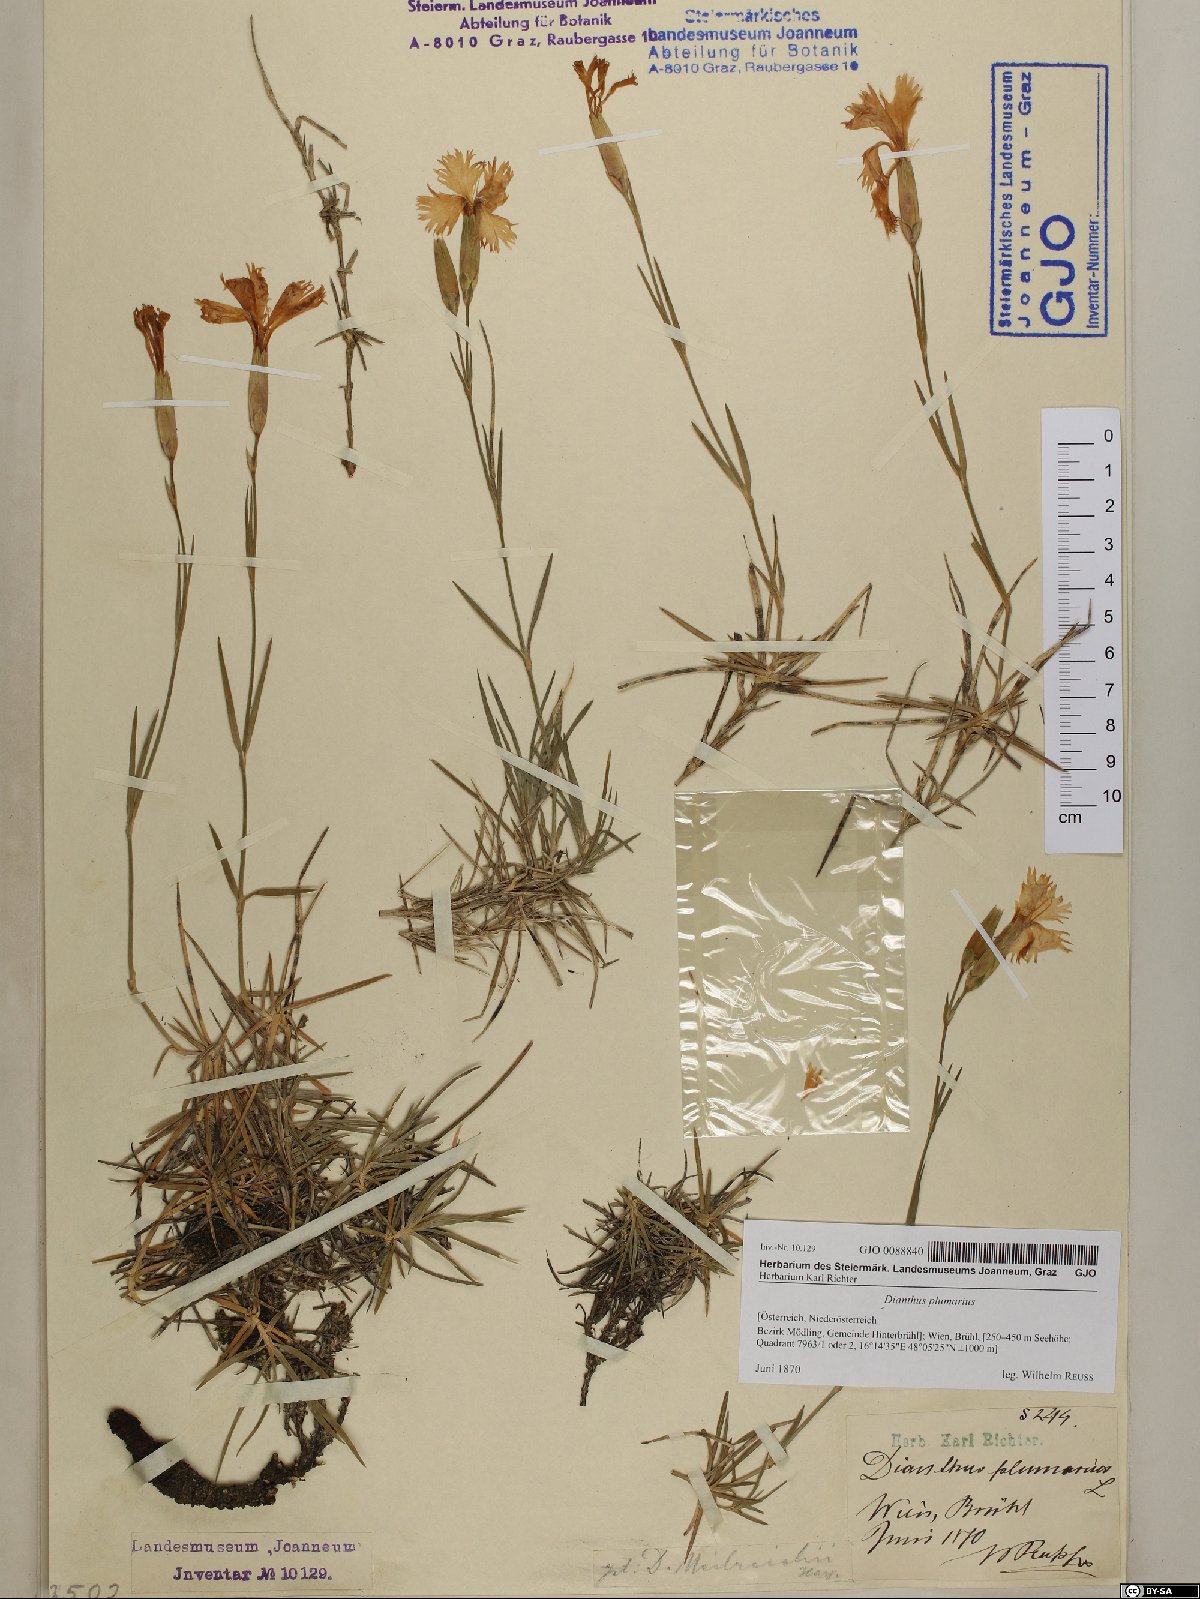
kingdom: Plantae
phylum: Tracheophyta
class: Magnoliopsida
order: Caryophyllales
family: Caryophyllaceae
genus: Dianthus
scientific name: Dianthus plumarius
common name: Pink
